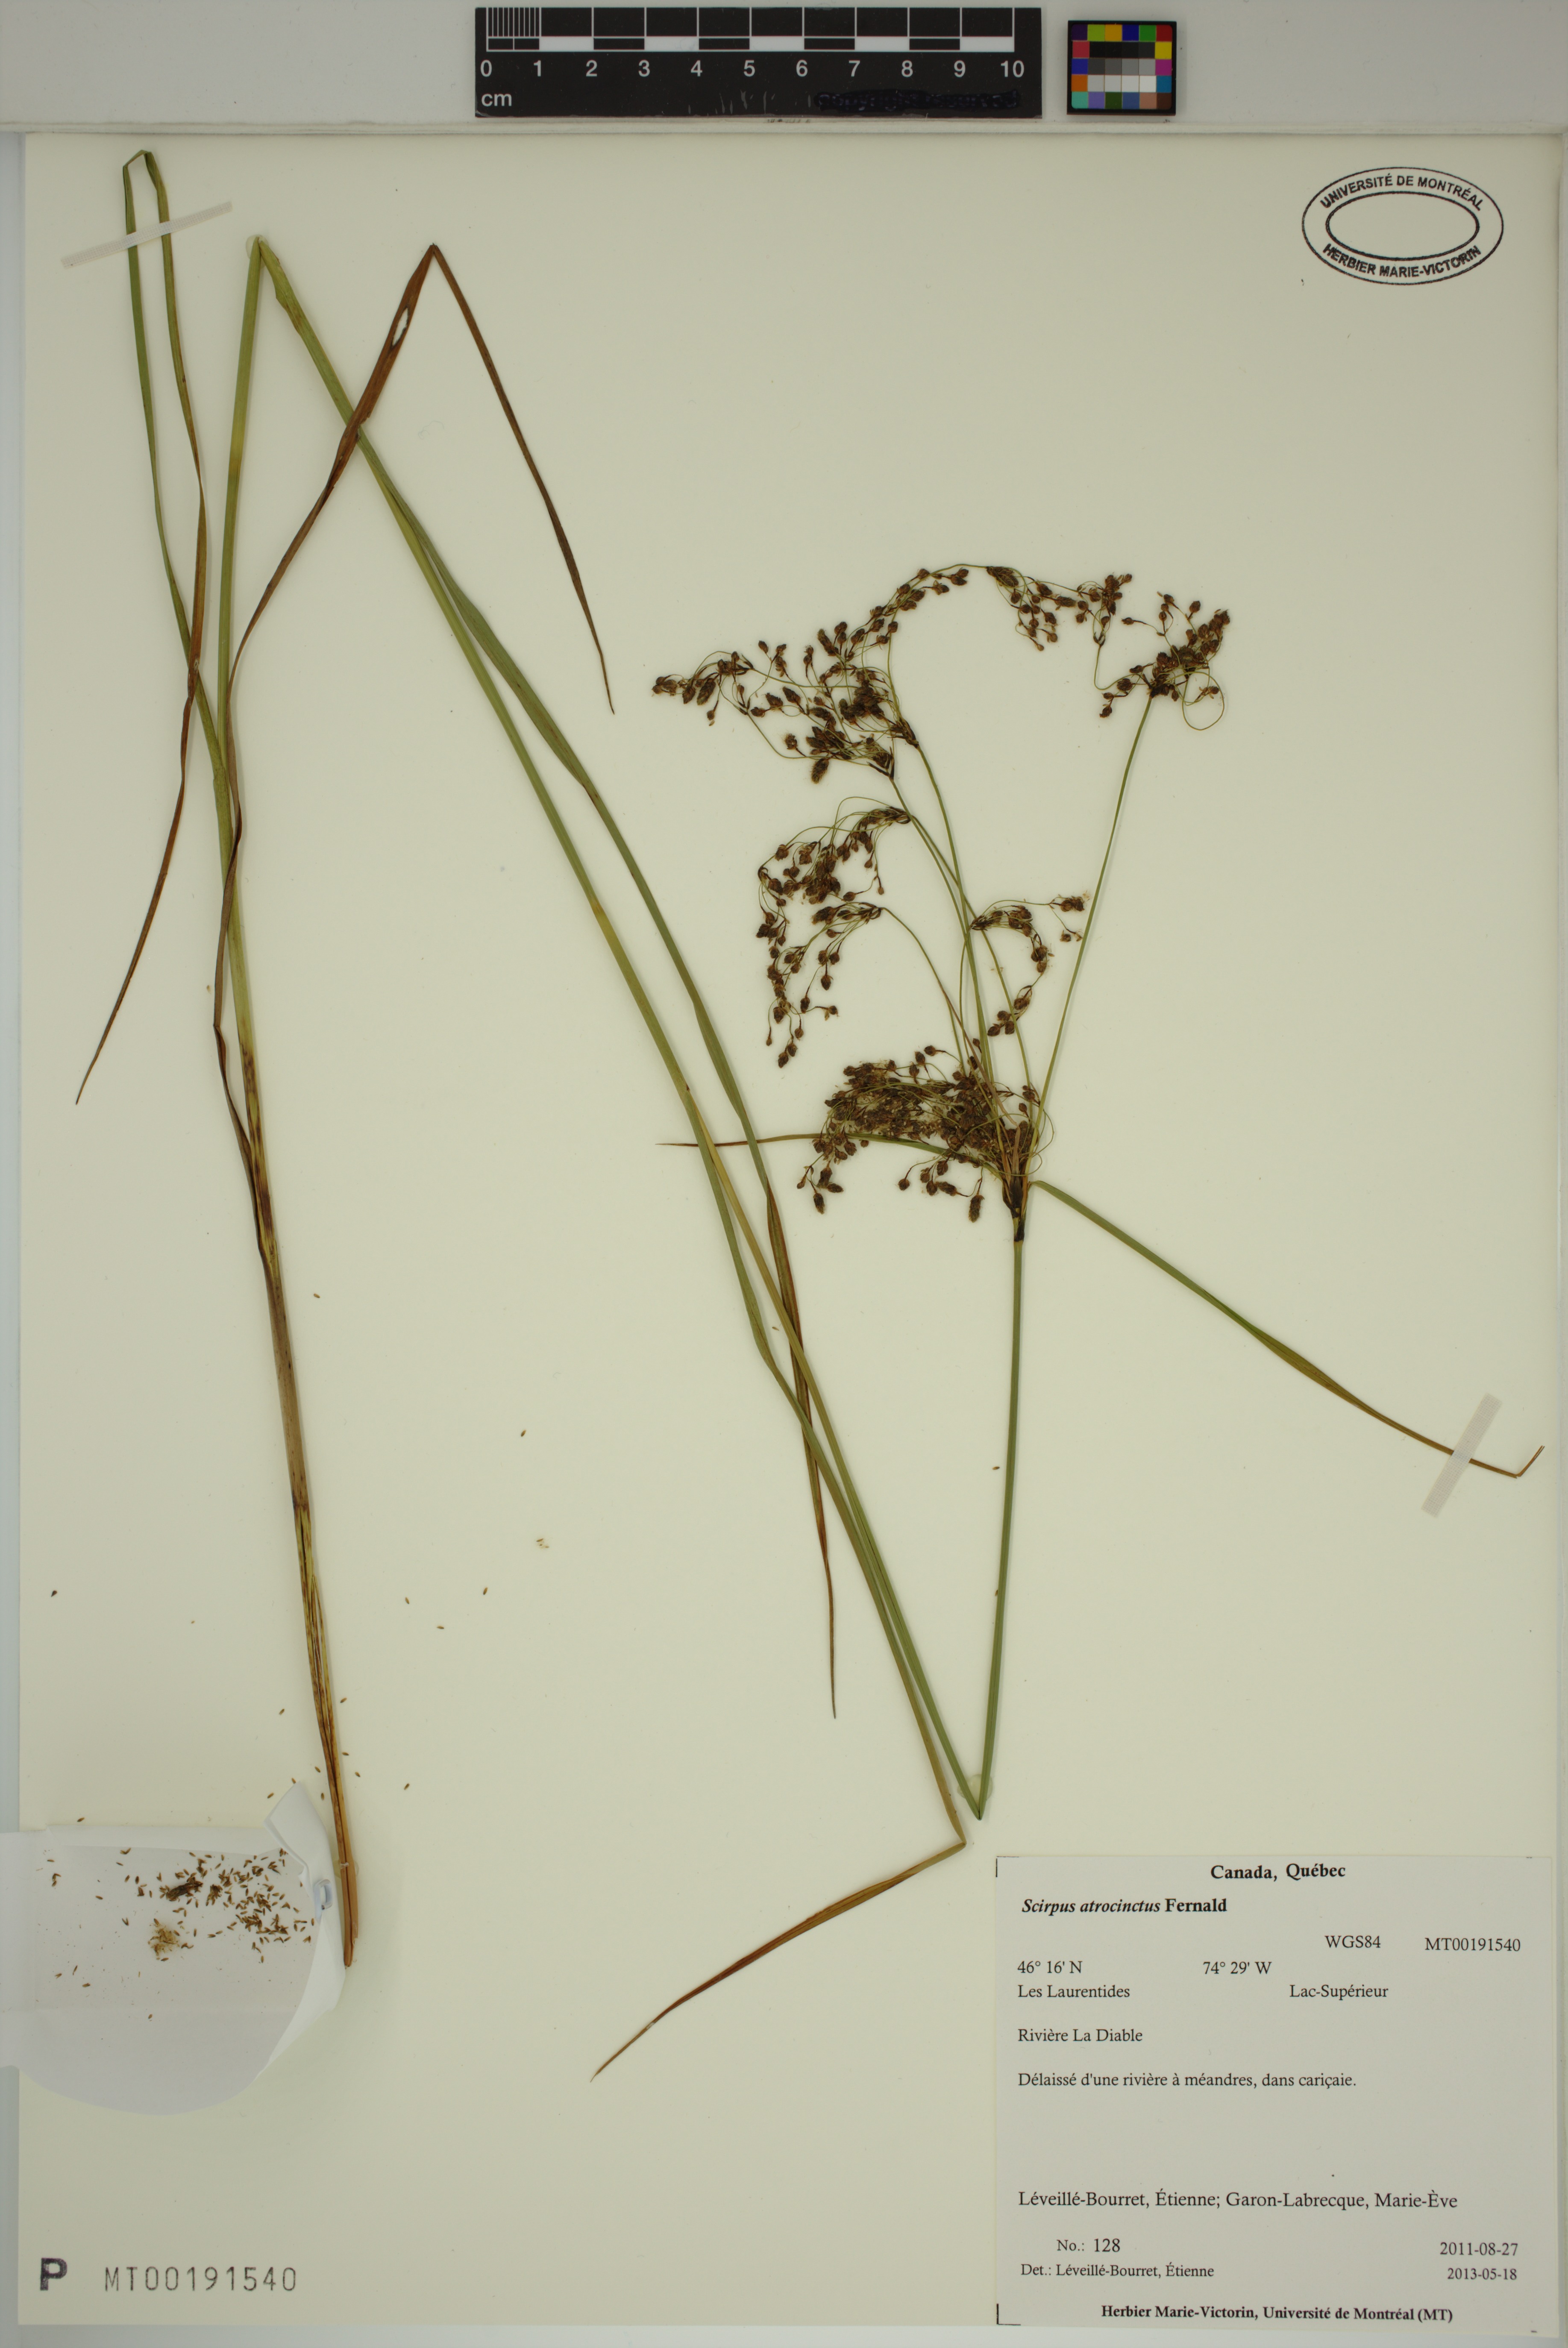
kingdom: Plantae
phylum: Tracheophyta
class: Liliopsida
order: Poales
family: Cyperaceae
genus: Scirpus
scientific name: Scirpus atrocinctus
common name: Black-girdled bulrush
